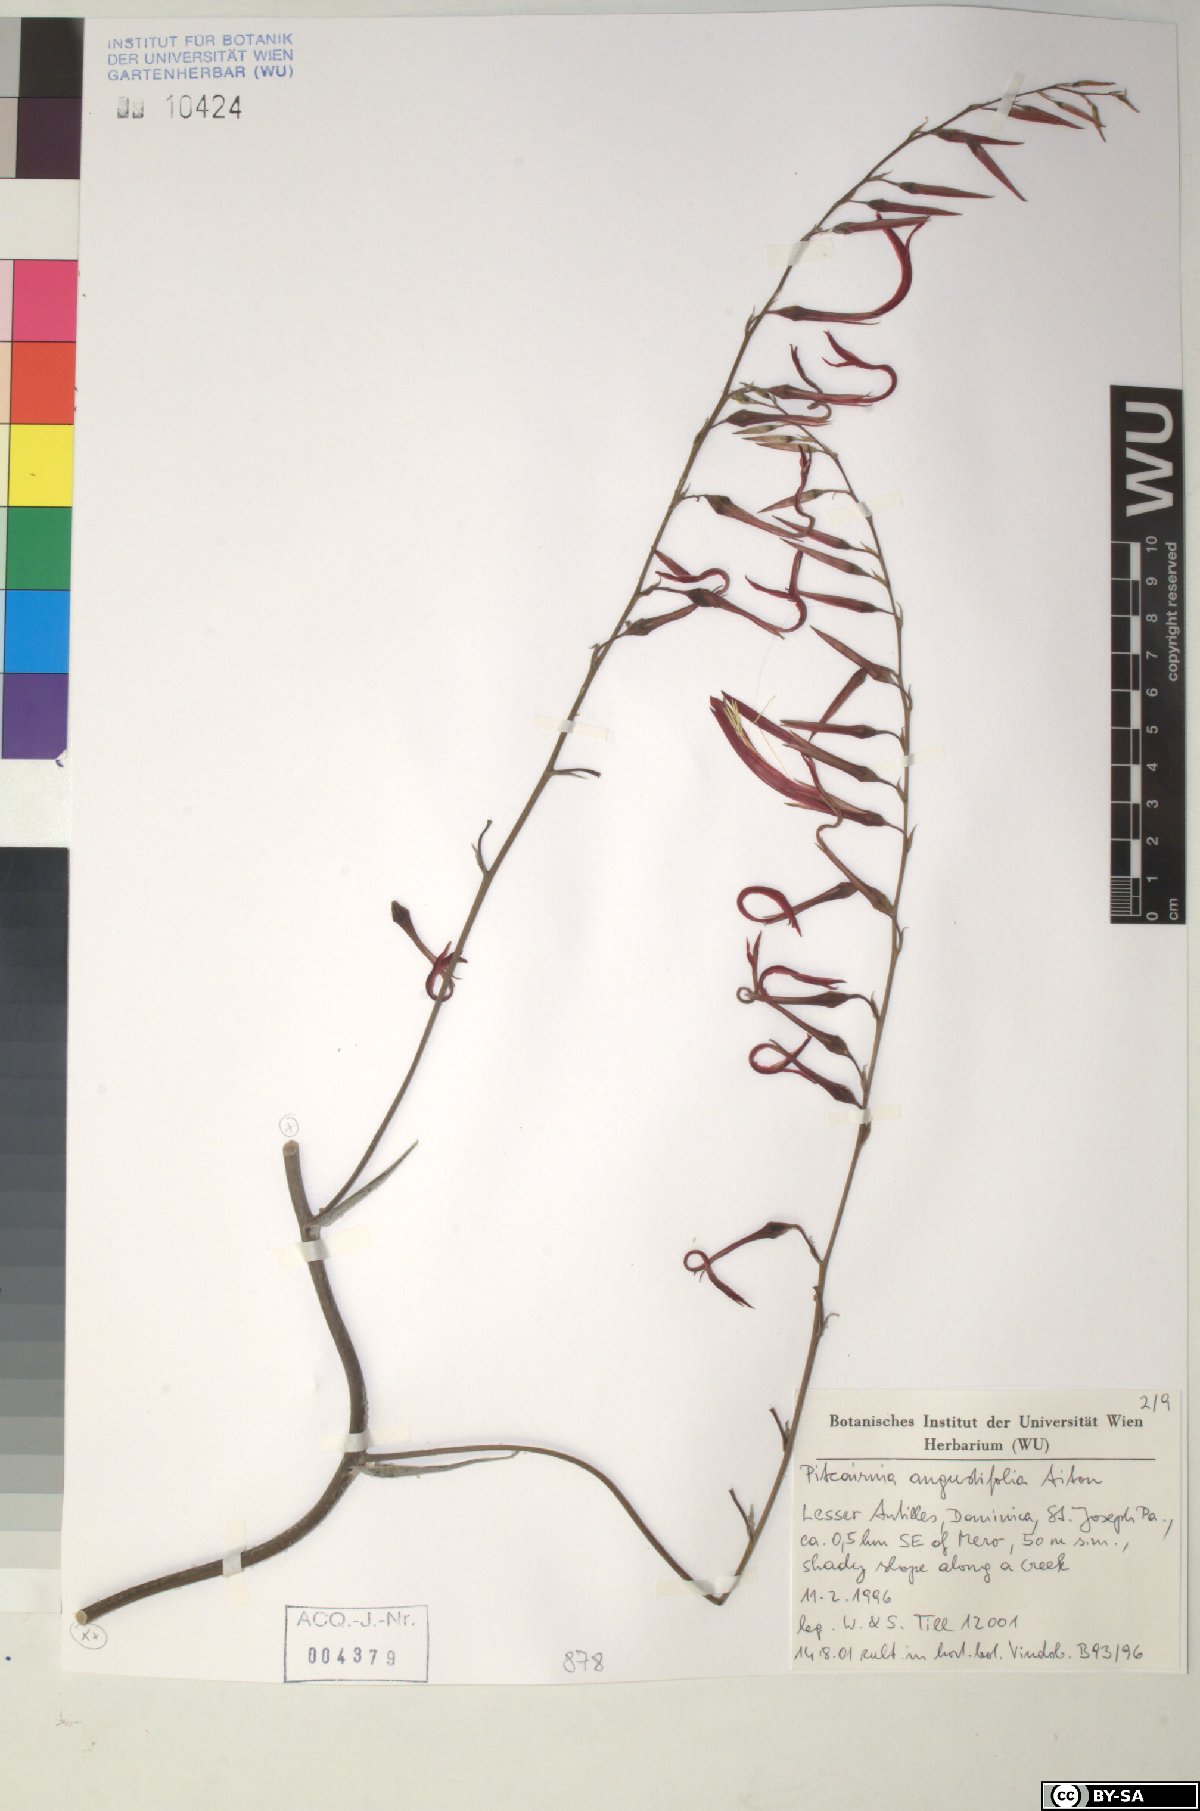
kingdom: Plantae
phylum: Tracheophyta
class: Liliopsida
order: Poales
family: Bromeliaceae
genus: Pitcairnia
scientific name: Pitcairnia angustifolia
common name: Clapper
